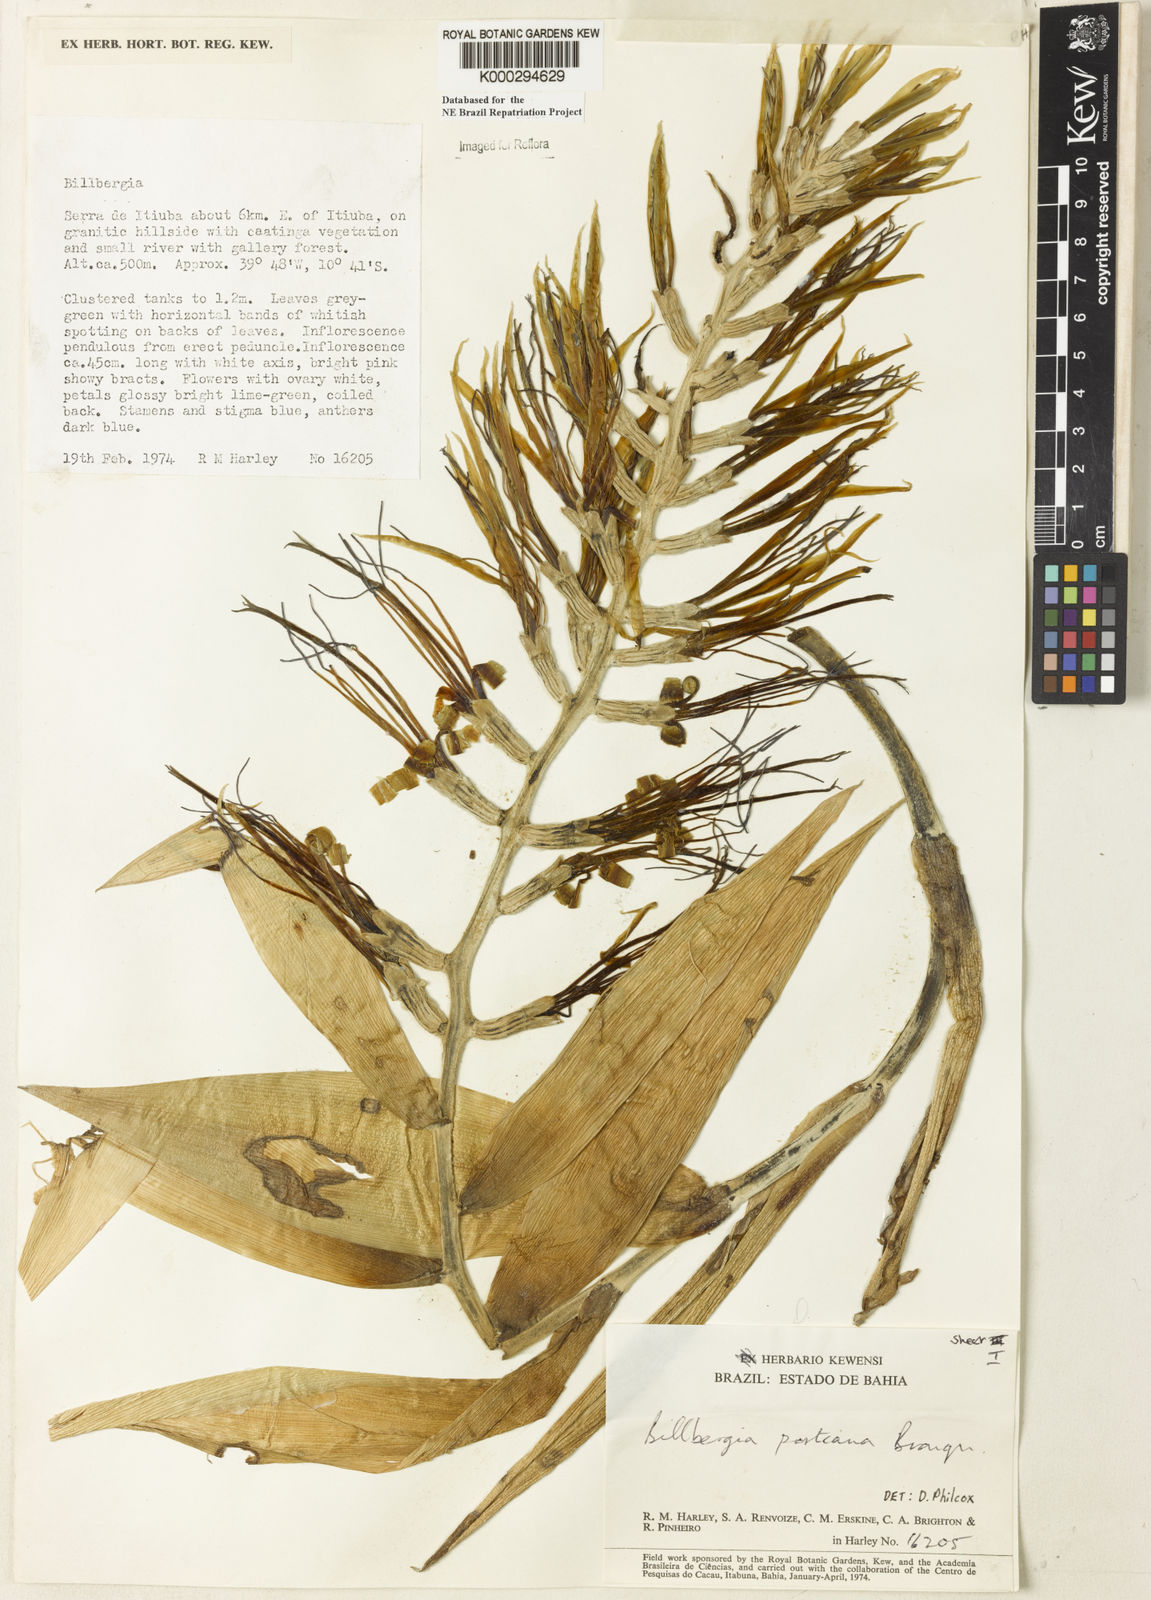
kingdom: Plantae
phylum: Tracheophyta
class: Liliopsida
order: Poales
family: Bromeliaceae
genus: Billbergia
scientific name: Billbergia porteana
